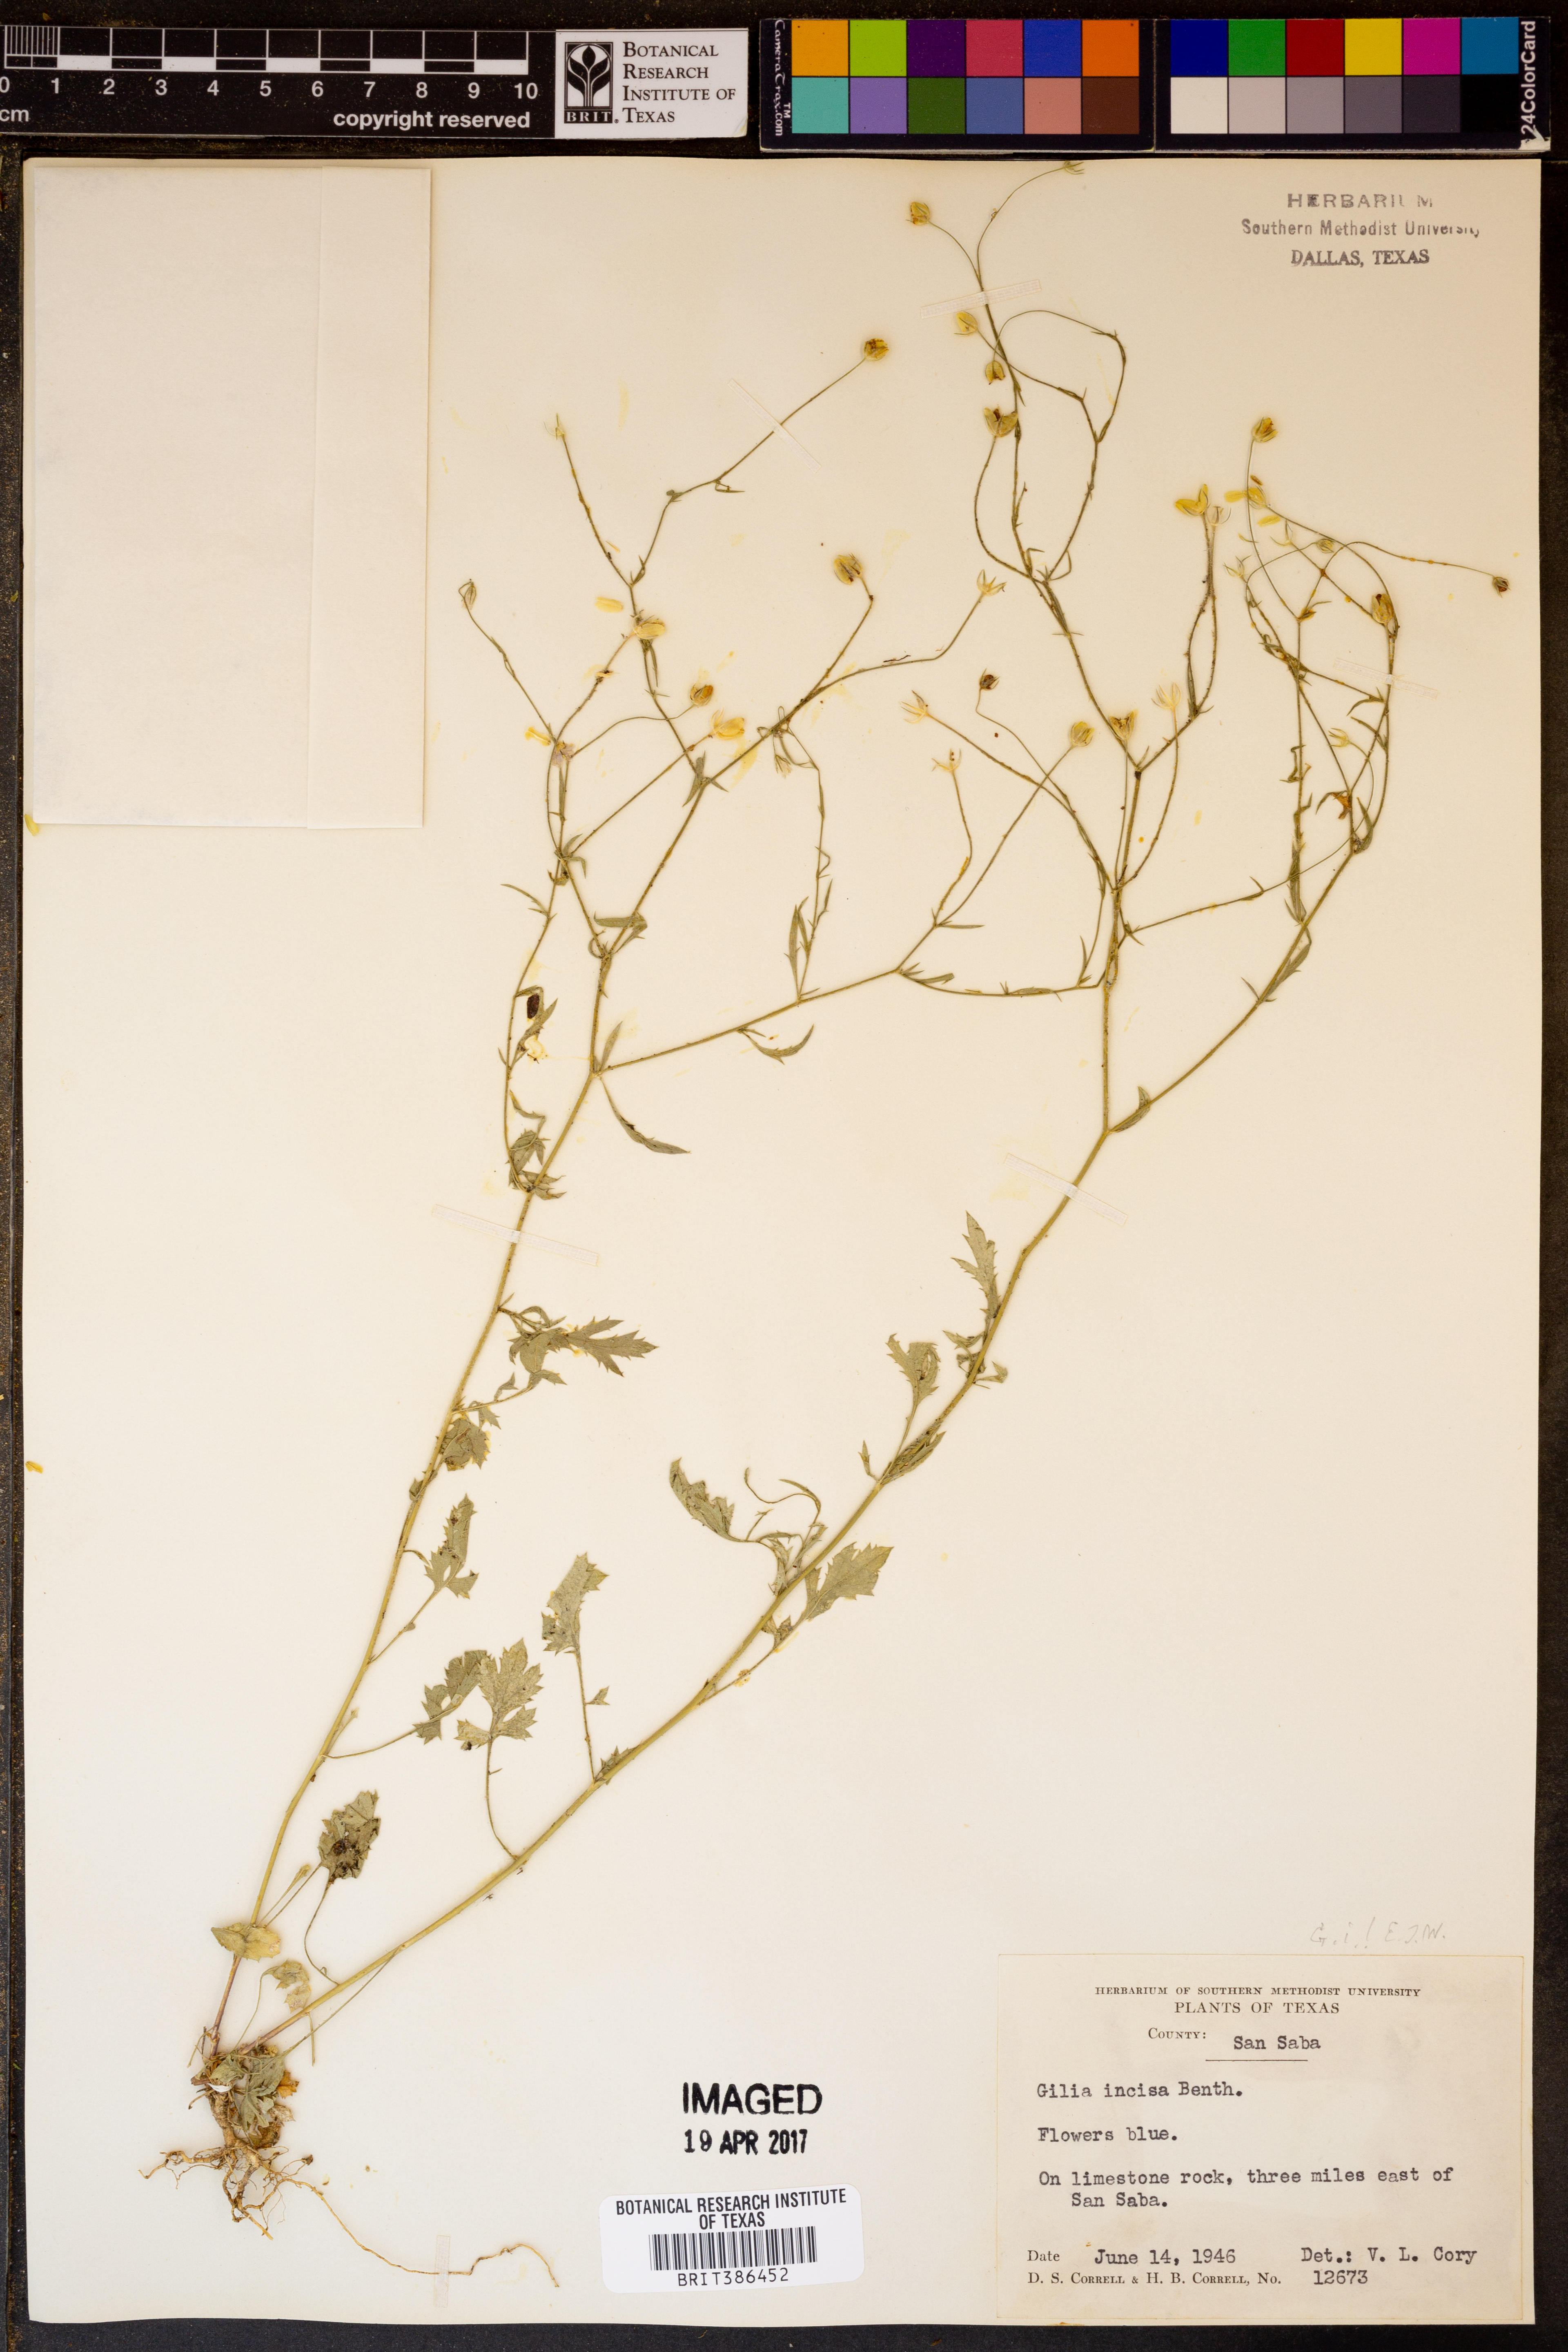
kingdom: Plantae
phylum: Tracheophyta
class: Magnoliopsida
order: Ericales
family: Polemoniaceae
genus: Giliastrum
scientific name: Giliastrum incisum
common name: Splitleaf gilia
